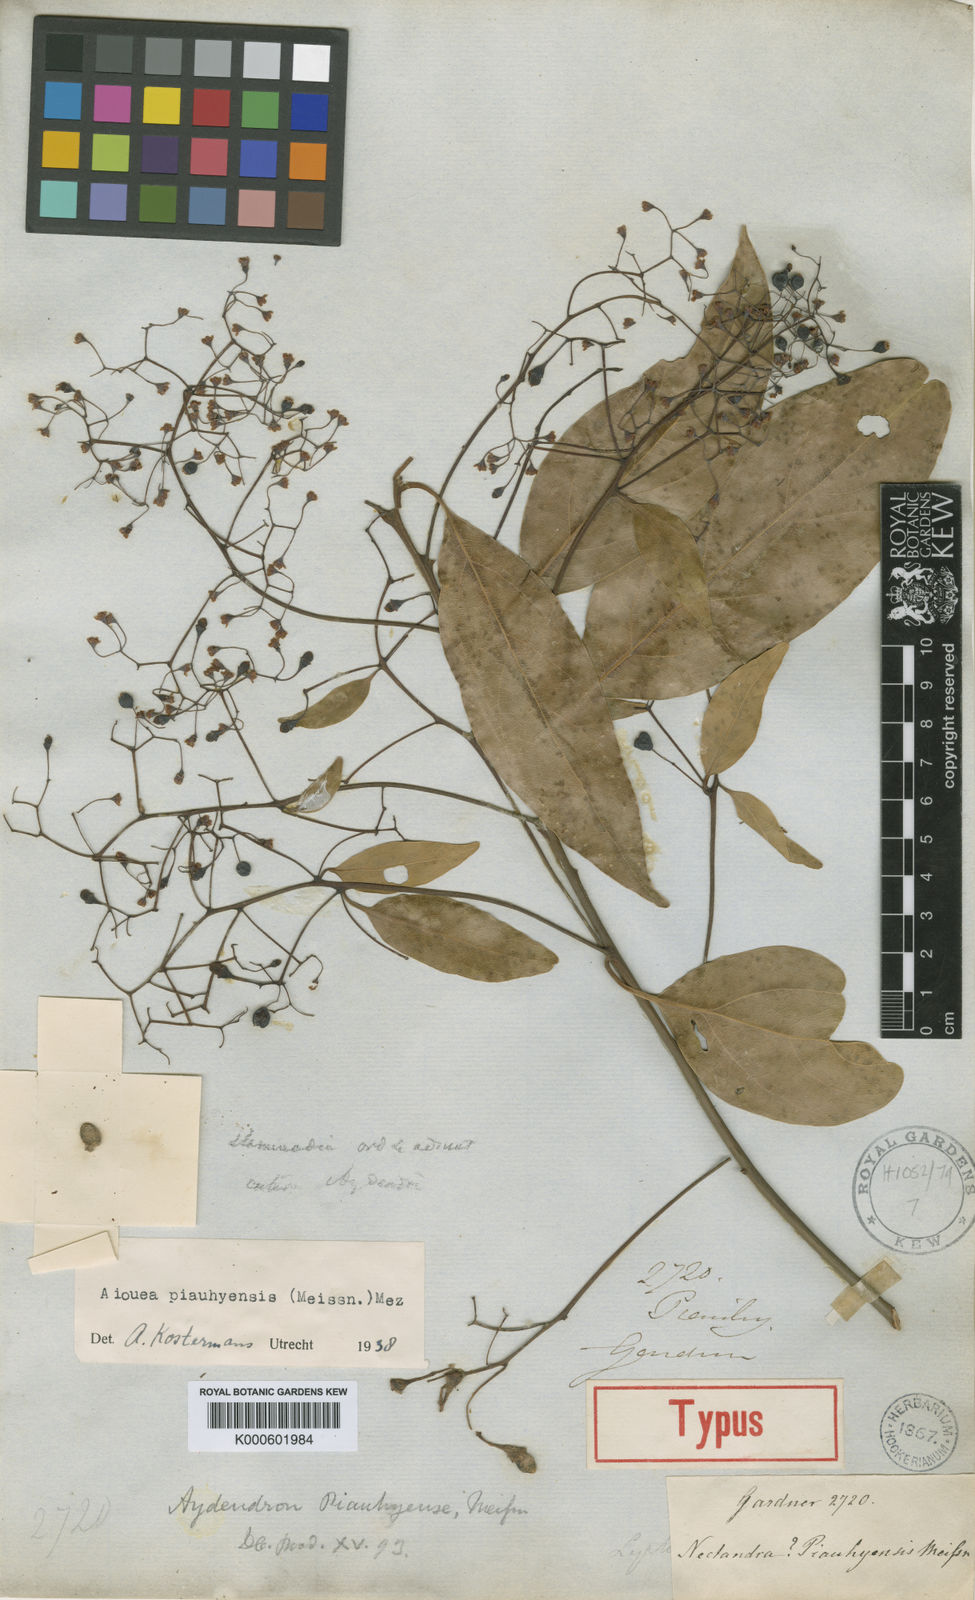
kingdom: Plantae
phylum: Tracheophyta
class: Magnoliopsida
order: Laurales
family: Lauraceae
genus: Aiouea
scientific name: Aiouea piauhyensis
